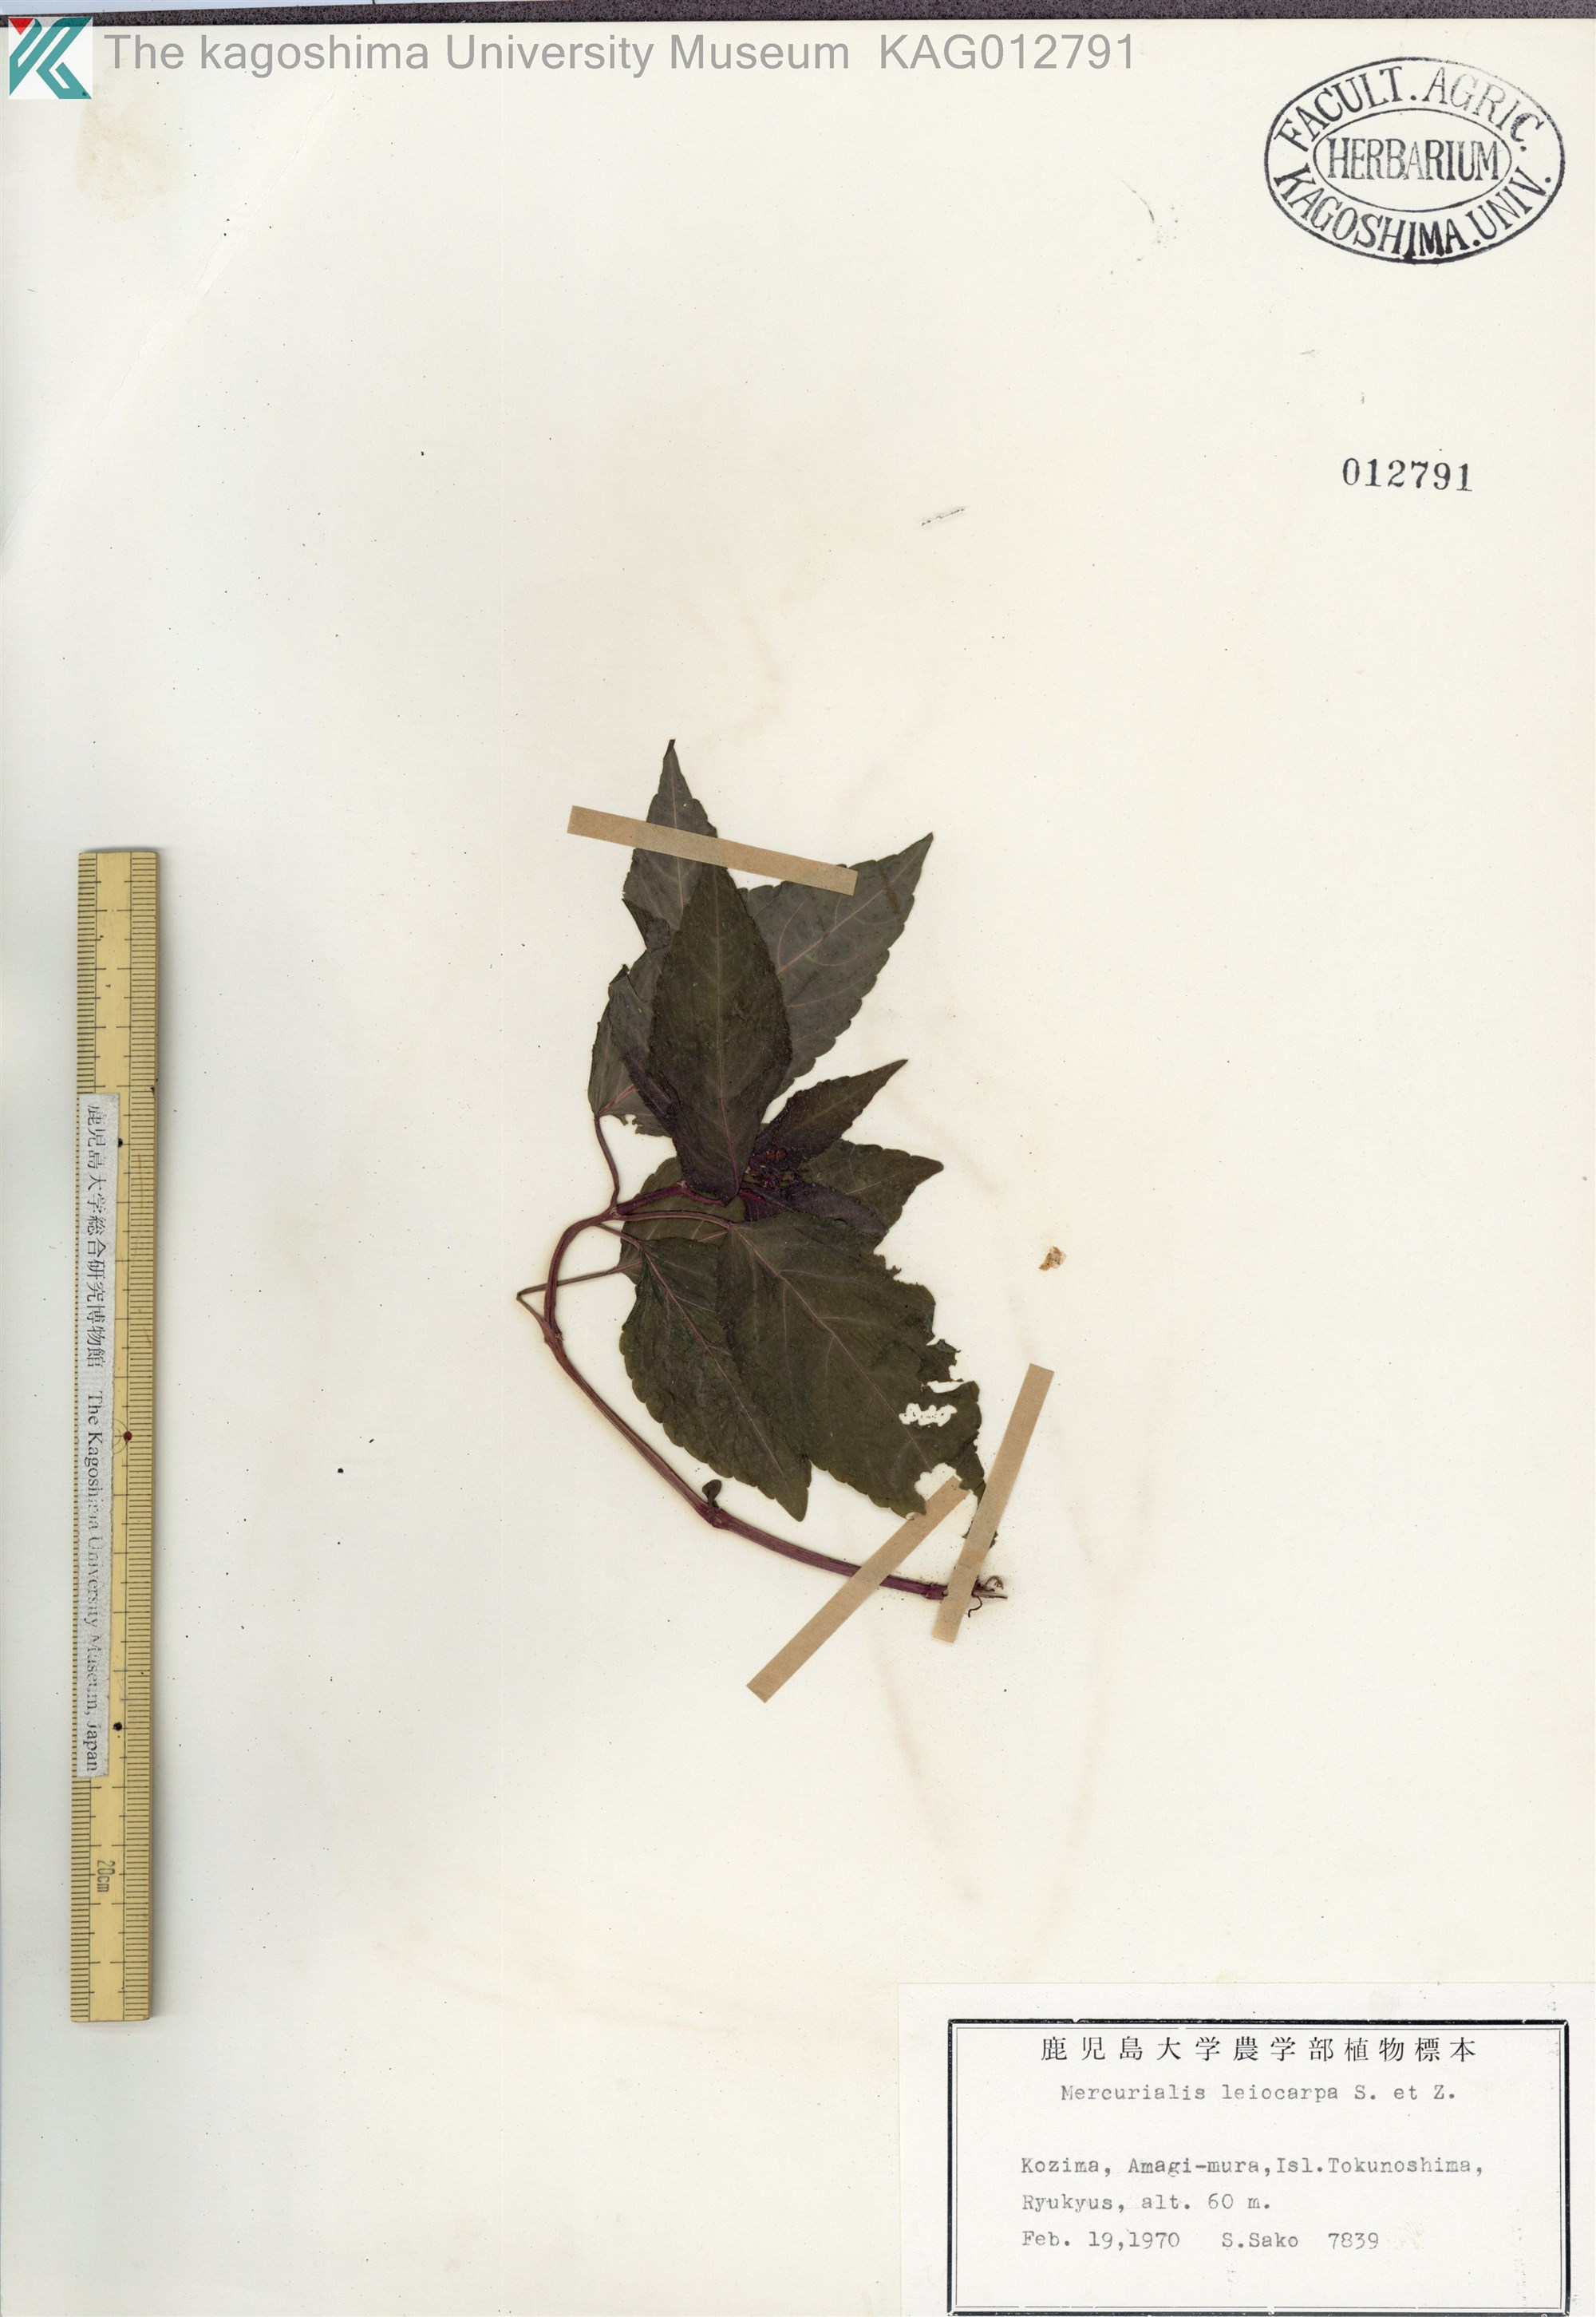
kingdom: Plantae
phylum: Tracheophyta
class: Magnoliopsida
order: Malpighiales
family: Euphorbiaceae
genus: Mercurialis
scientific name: Mercurialis leiocarpa
